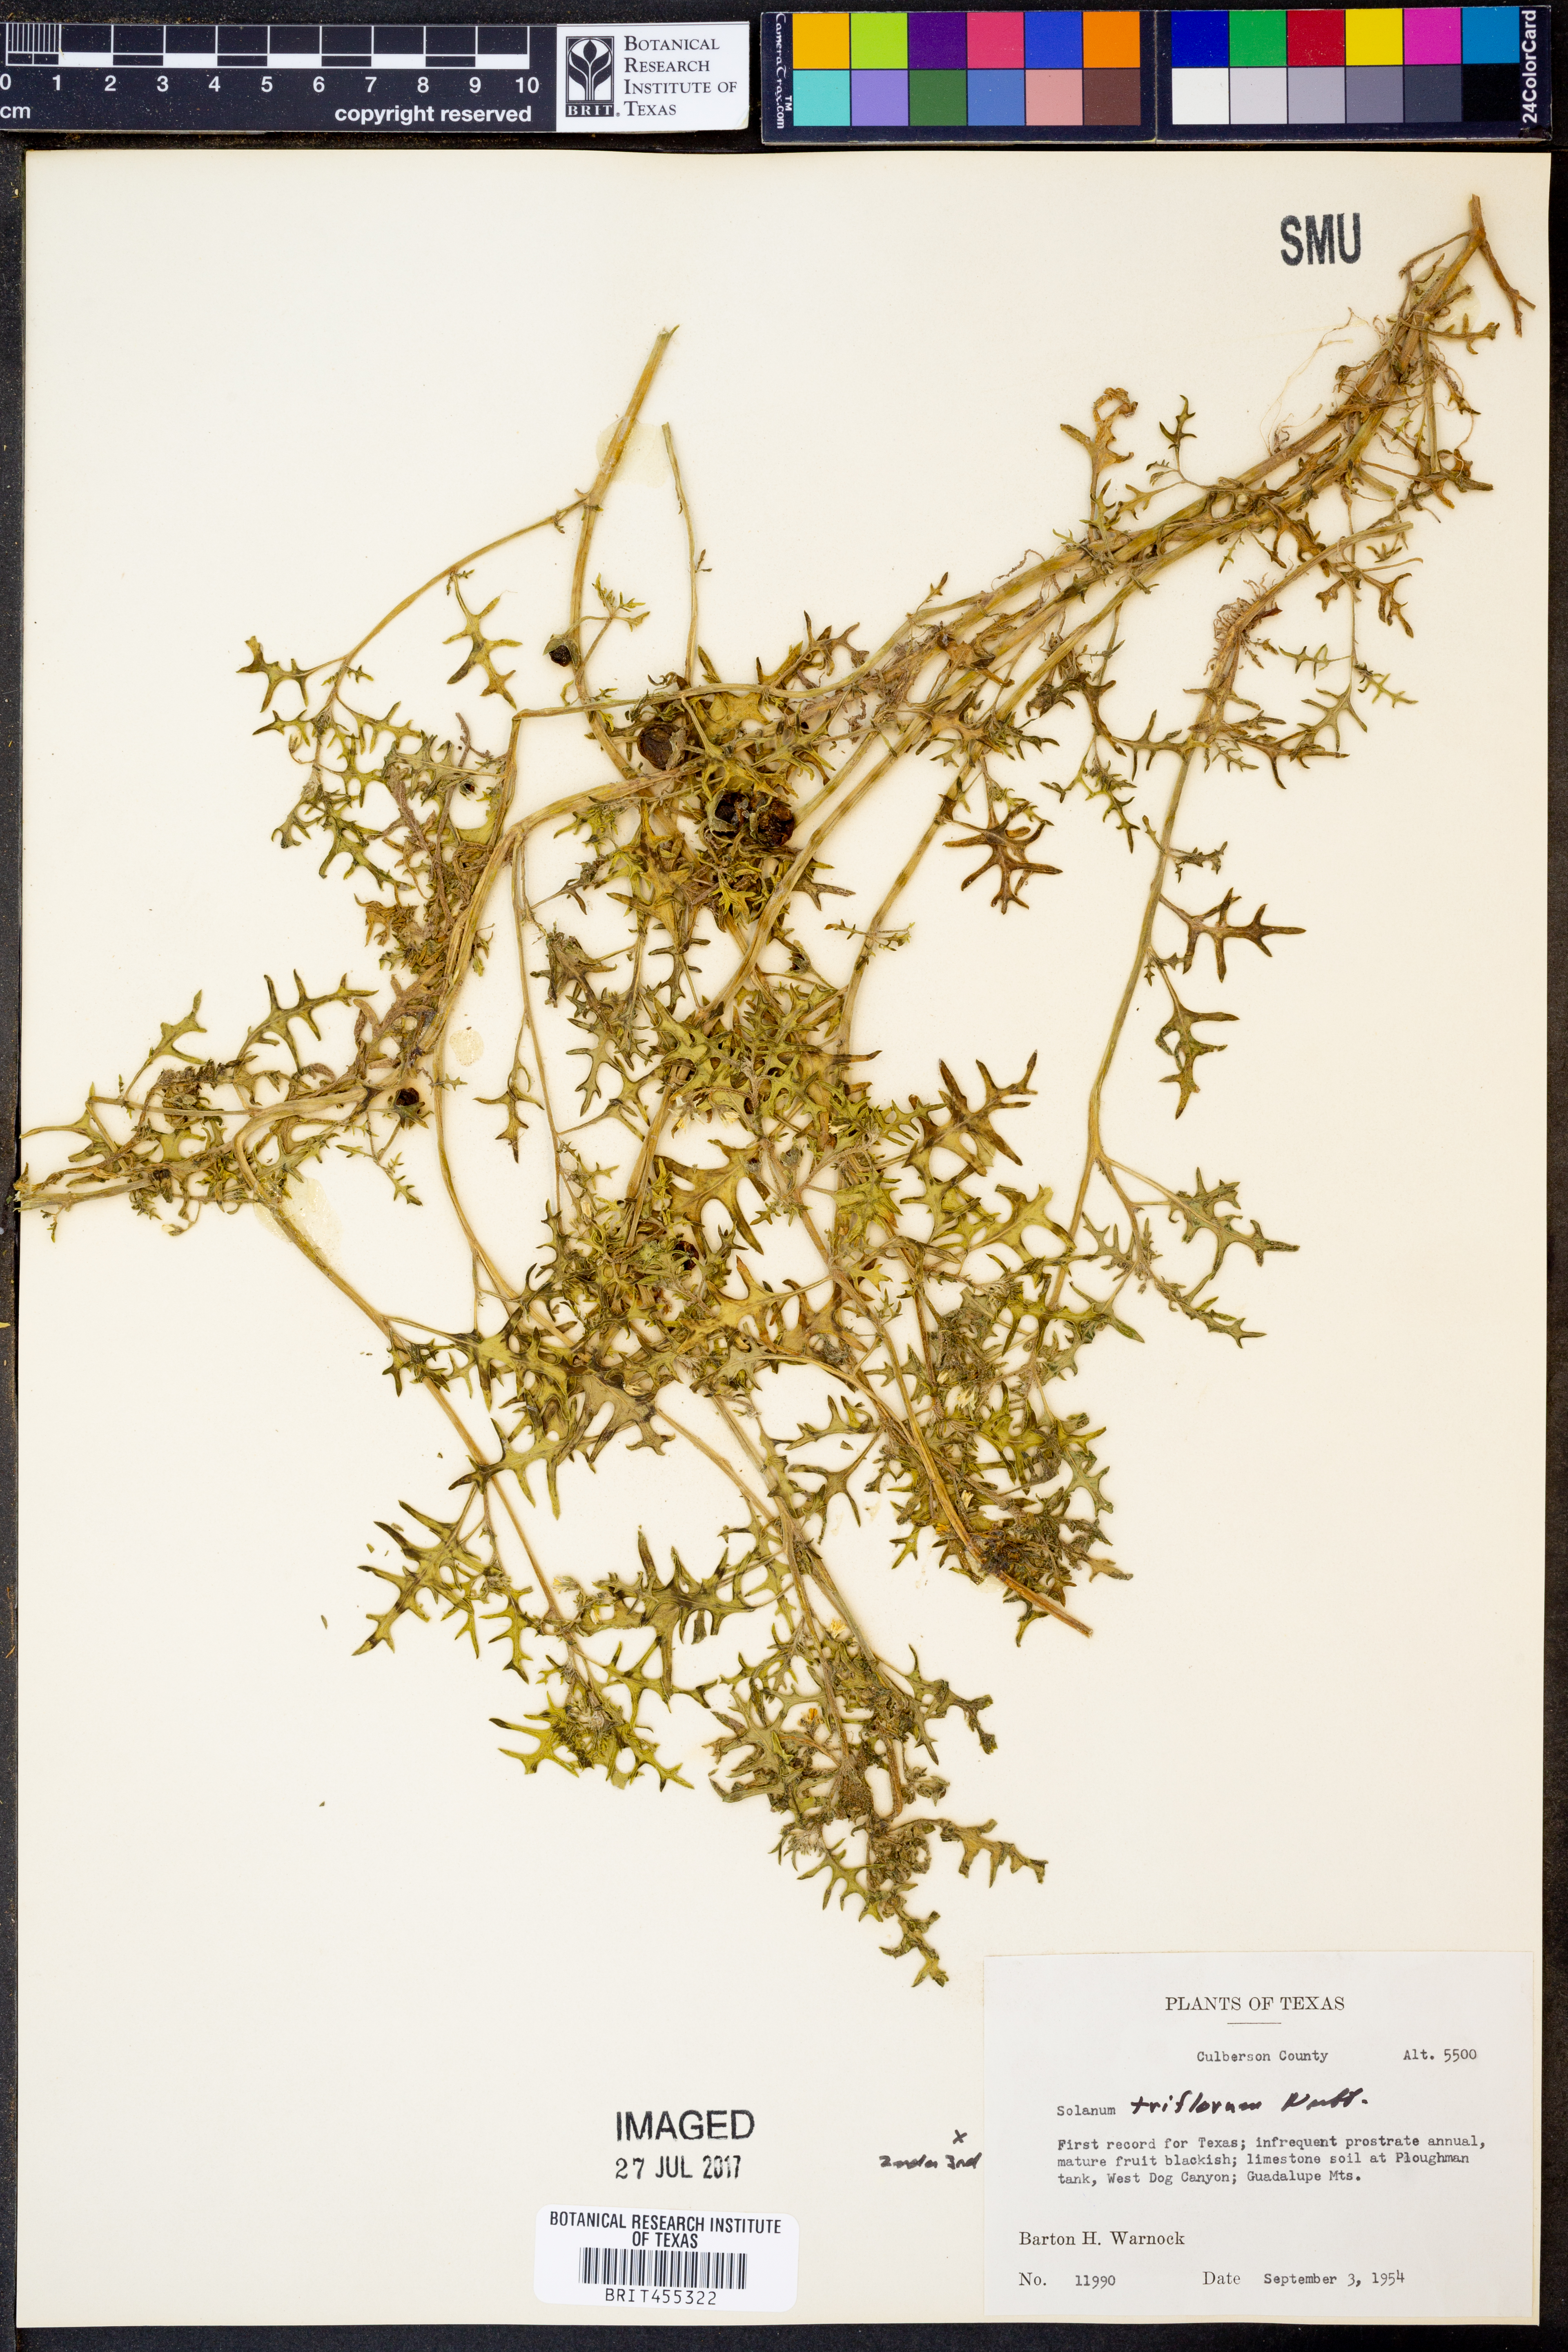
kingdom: Plantae
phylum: Tracheophyta
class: Magnoliopsida
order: Solanales
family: Solanaceae
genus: Solanum
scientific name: Solanum triflorum
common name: Small nightshade
